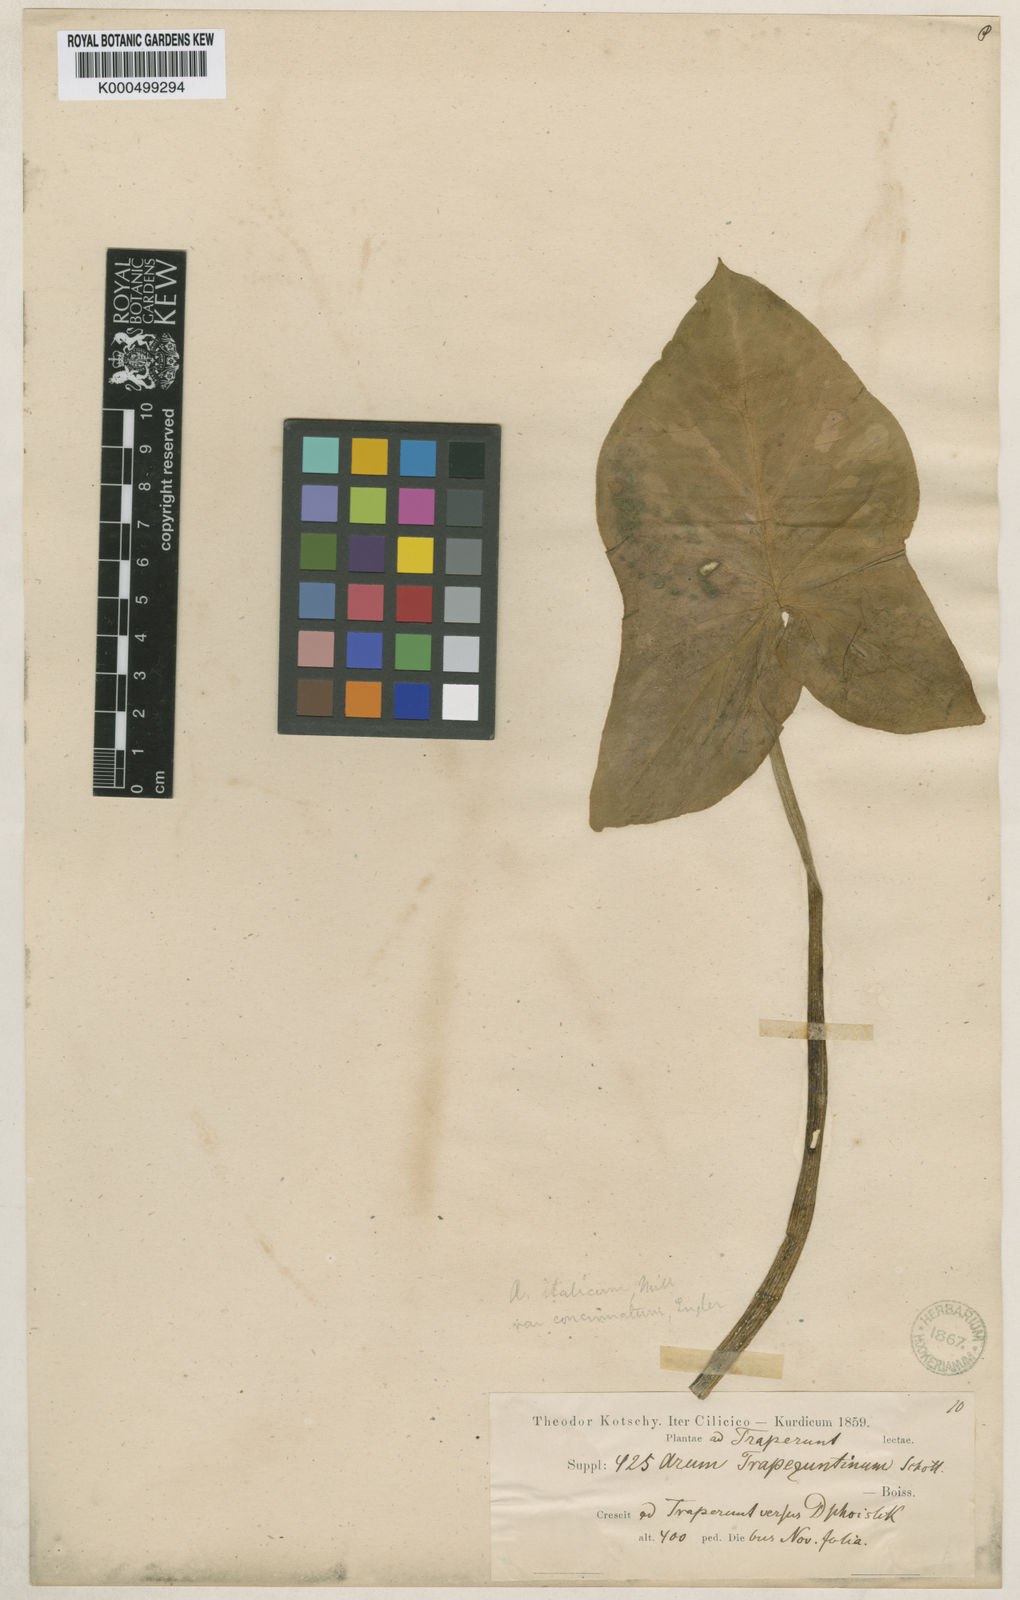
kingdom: Plantae
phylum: Tracheophyta
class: Liliopsida
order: Alismatales
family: Araceae
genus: Arum
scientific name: Arum italicum
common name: Italian lords-and-ladies
